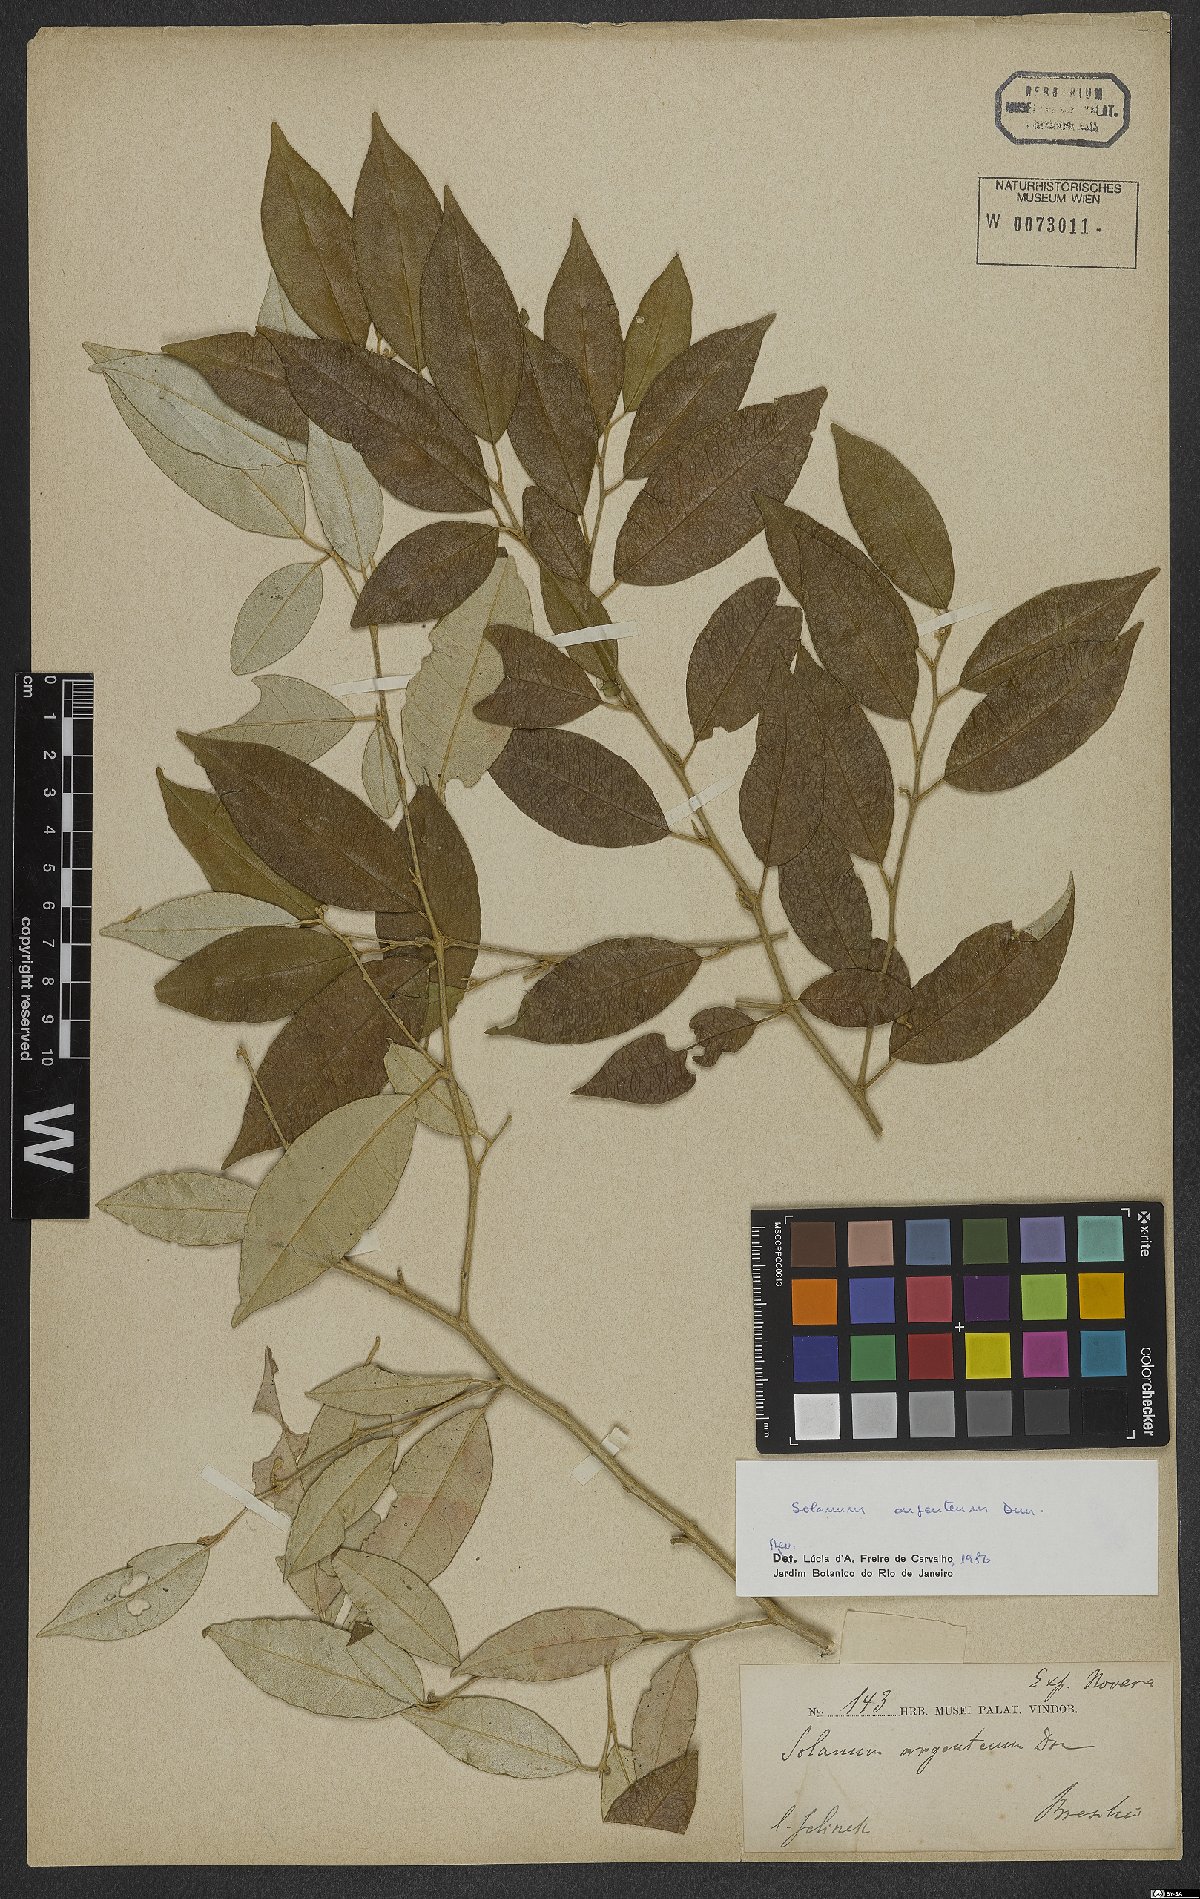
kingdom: Plantae
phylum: Tracheophyta
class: Magnoliopsida
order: Solanales
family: Solanaceae
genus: Solanum
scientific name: Solanum swartzianum
